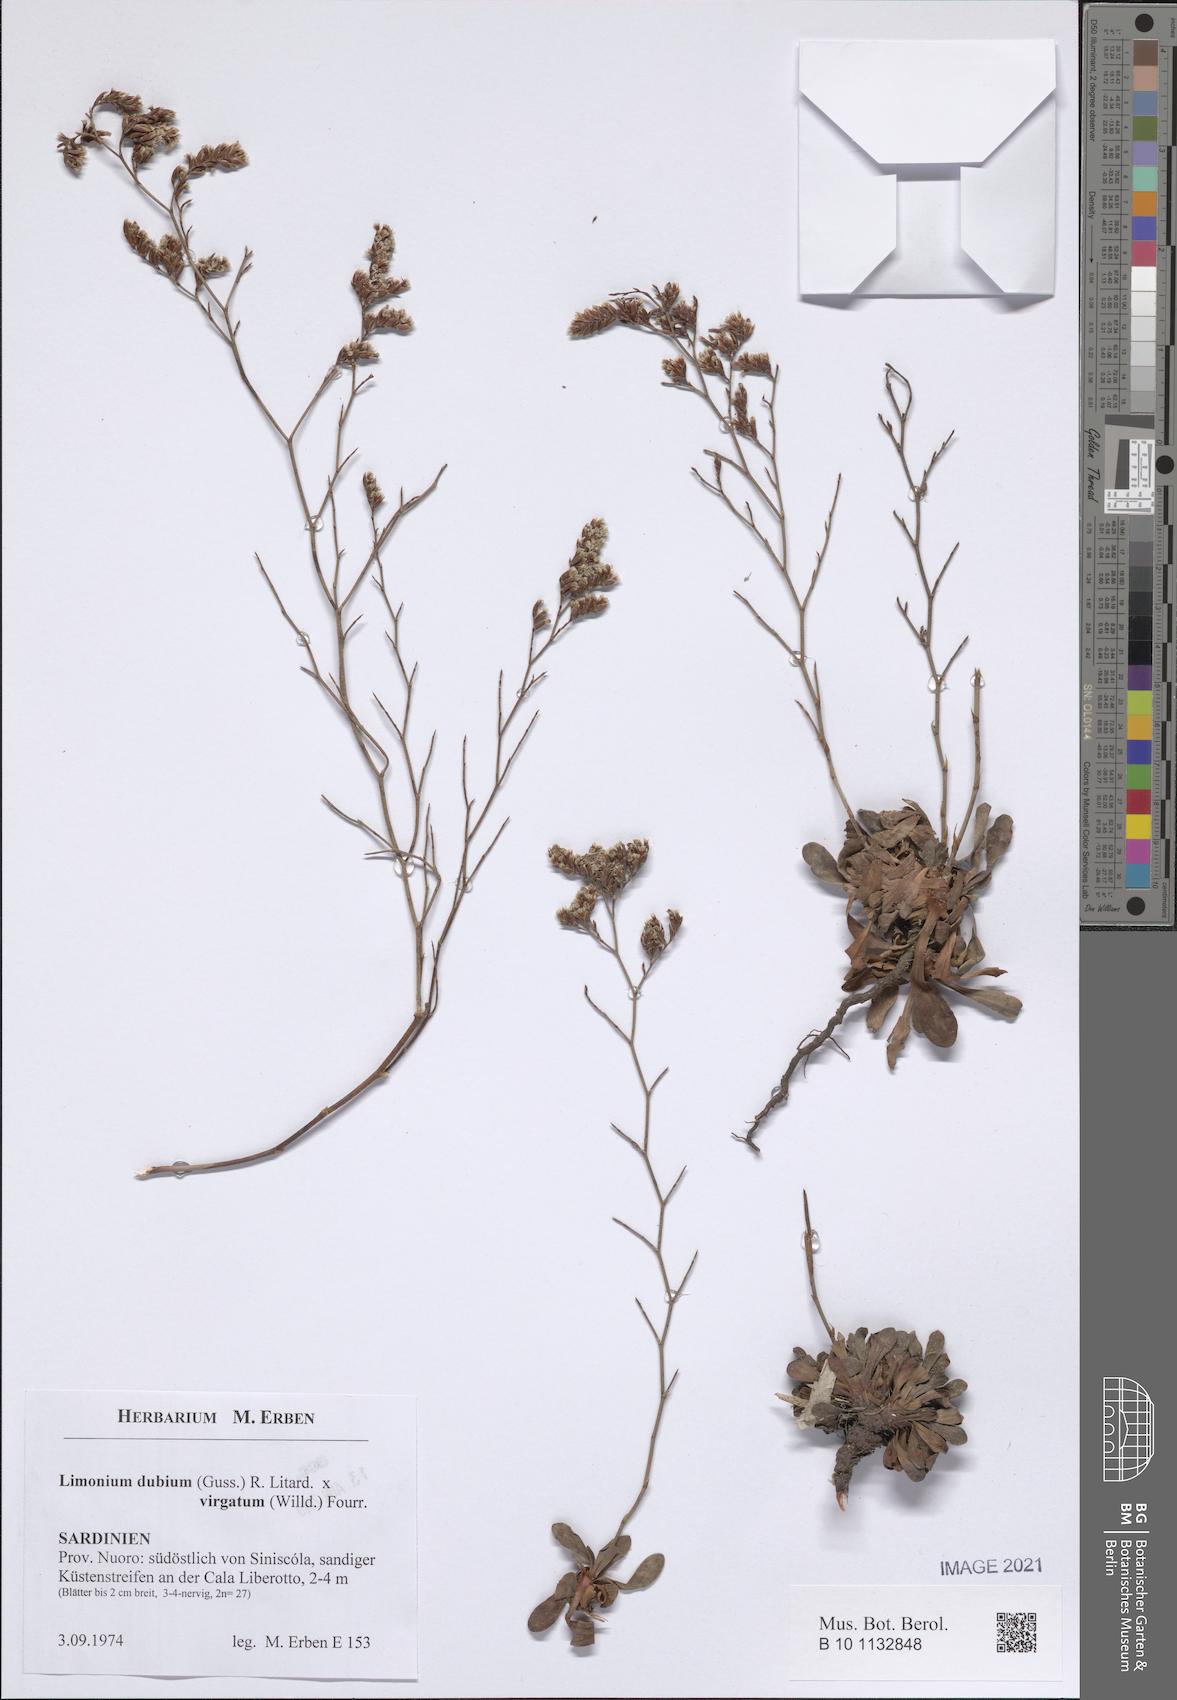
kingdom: Plantae
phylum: Tracheophyta
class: Magnoliopsida
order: Caryophyllales
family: Plumbaginaceae
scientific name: Plumbaginaceae
